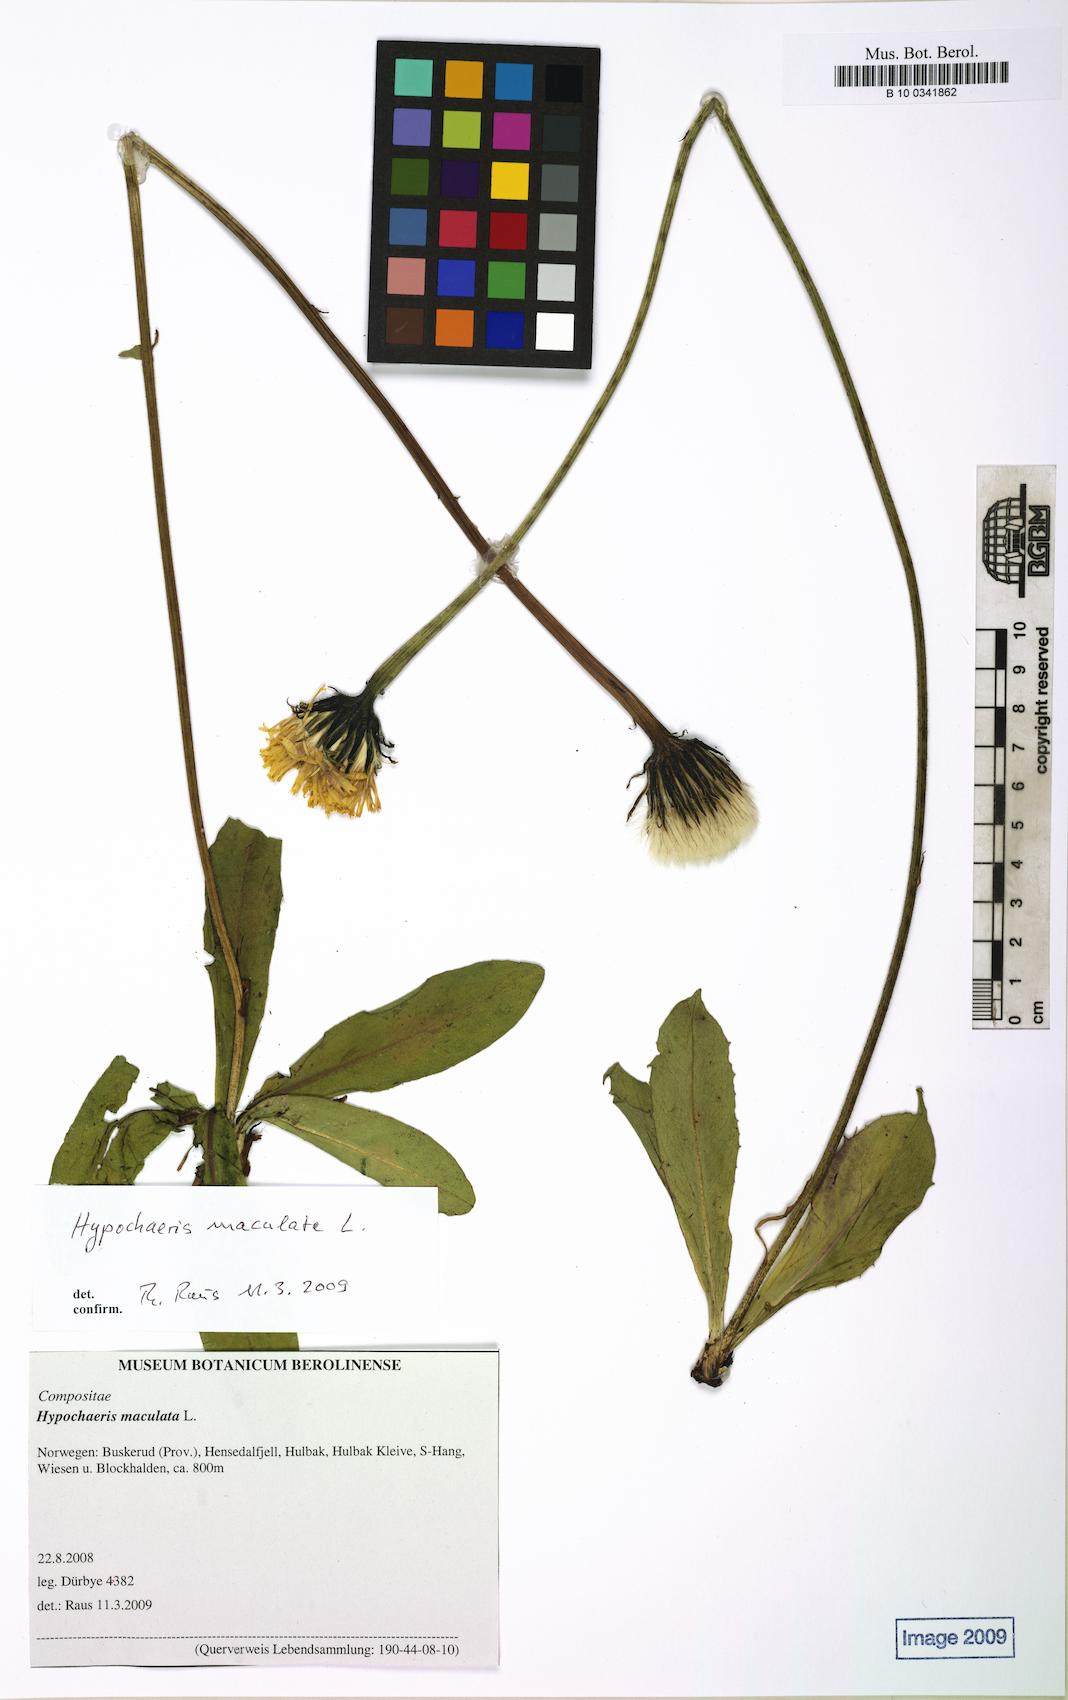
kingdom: Plantae
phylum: Tracheophyta
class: Magnoliopsida
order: Asterales
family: Asteraceae
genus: Trommsdorffia
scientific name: Trommsdorffia maculata
